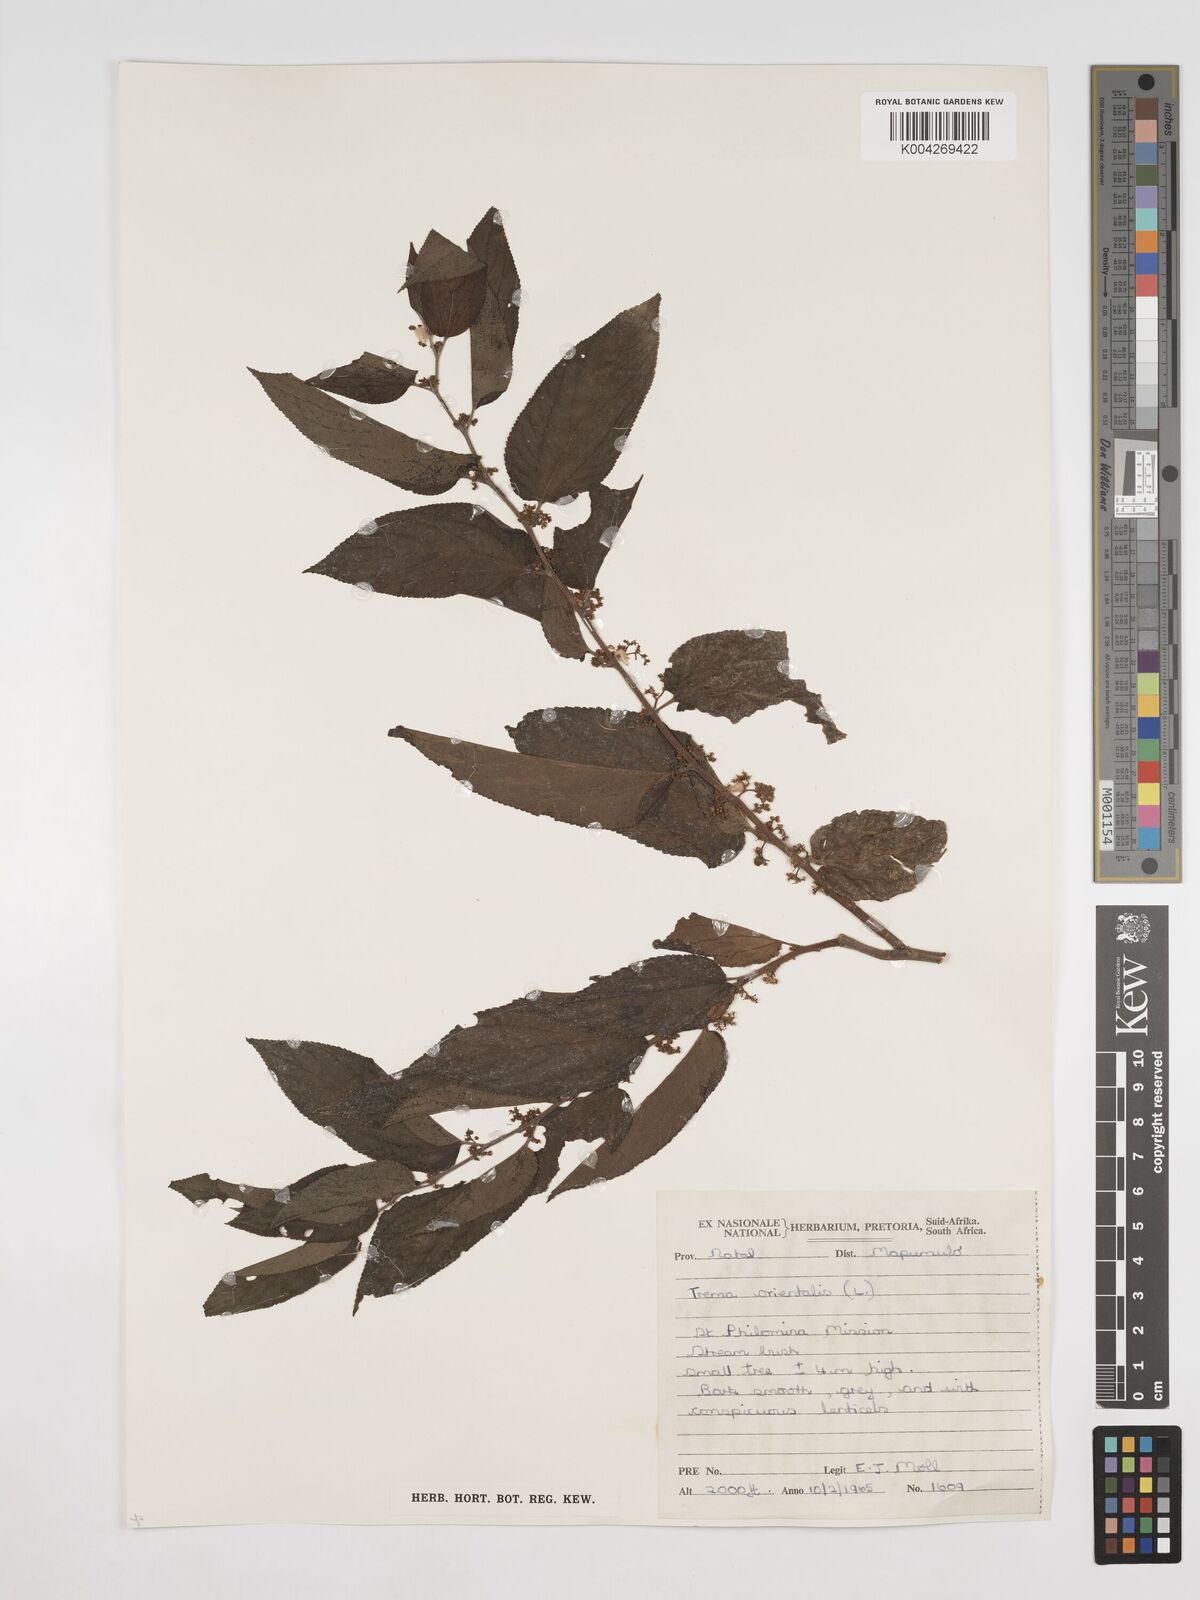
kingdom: Plantae
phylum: Tracheophyta
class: Magnoliopsida
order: Rosales
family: Cannabaceae
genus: Trema
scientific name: Trema orientale
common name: Indian charcoal tree
